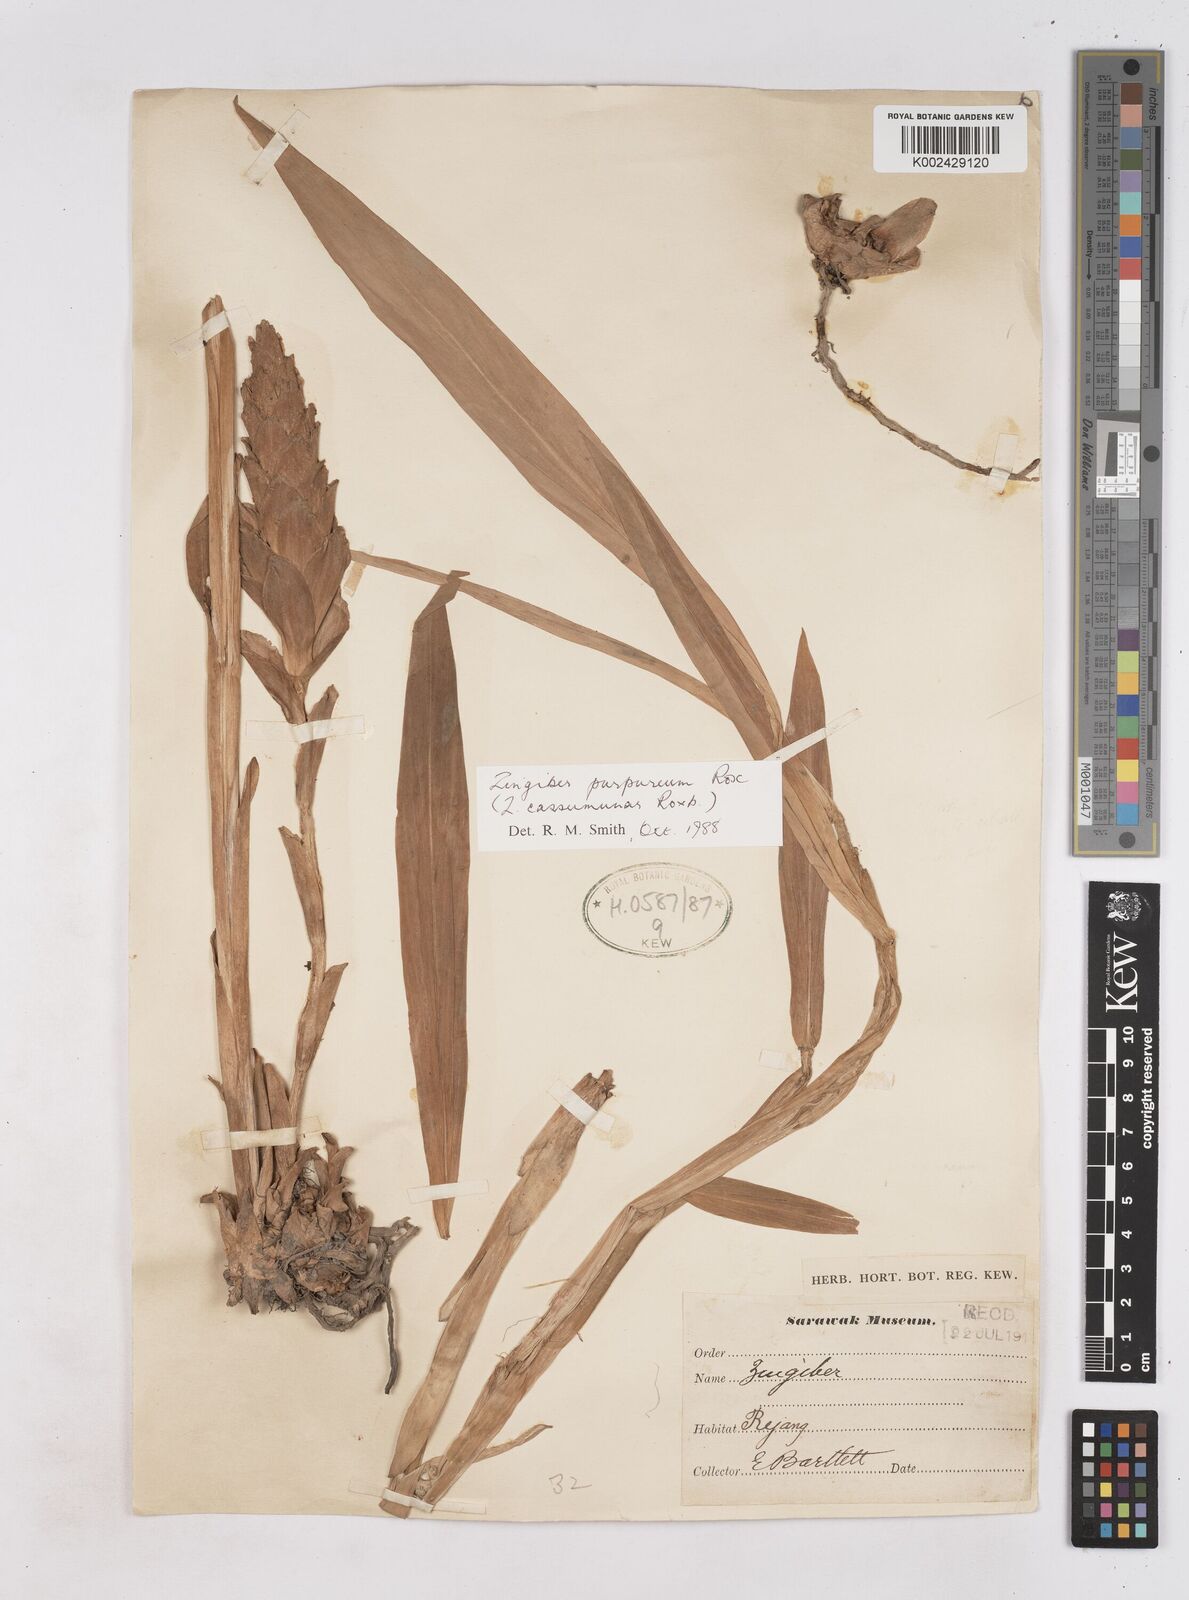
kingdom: Plantae
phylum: Tracheophyta
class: Liliopsida
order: Zingiberales
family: Zingiberaceae
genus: Zingiber
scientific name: Zingiber montanum
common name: Bengal ginger
